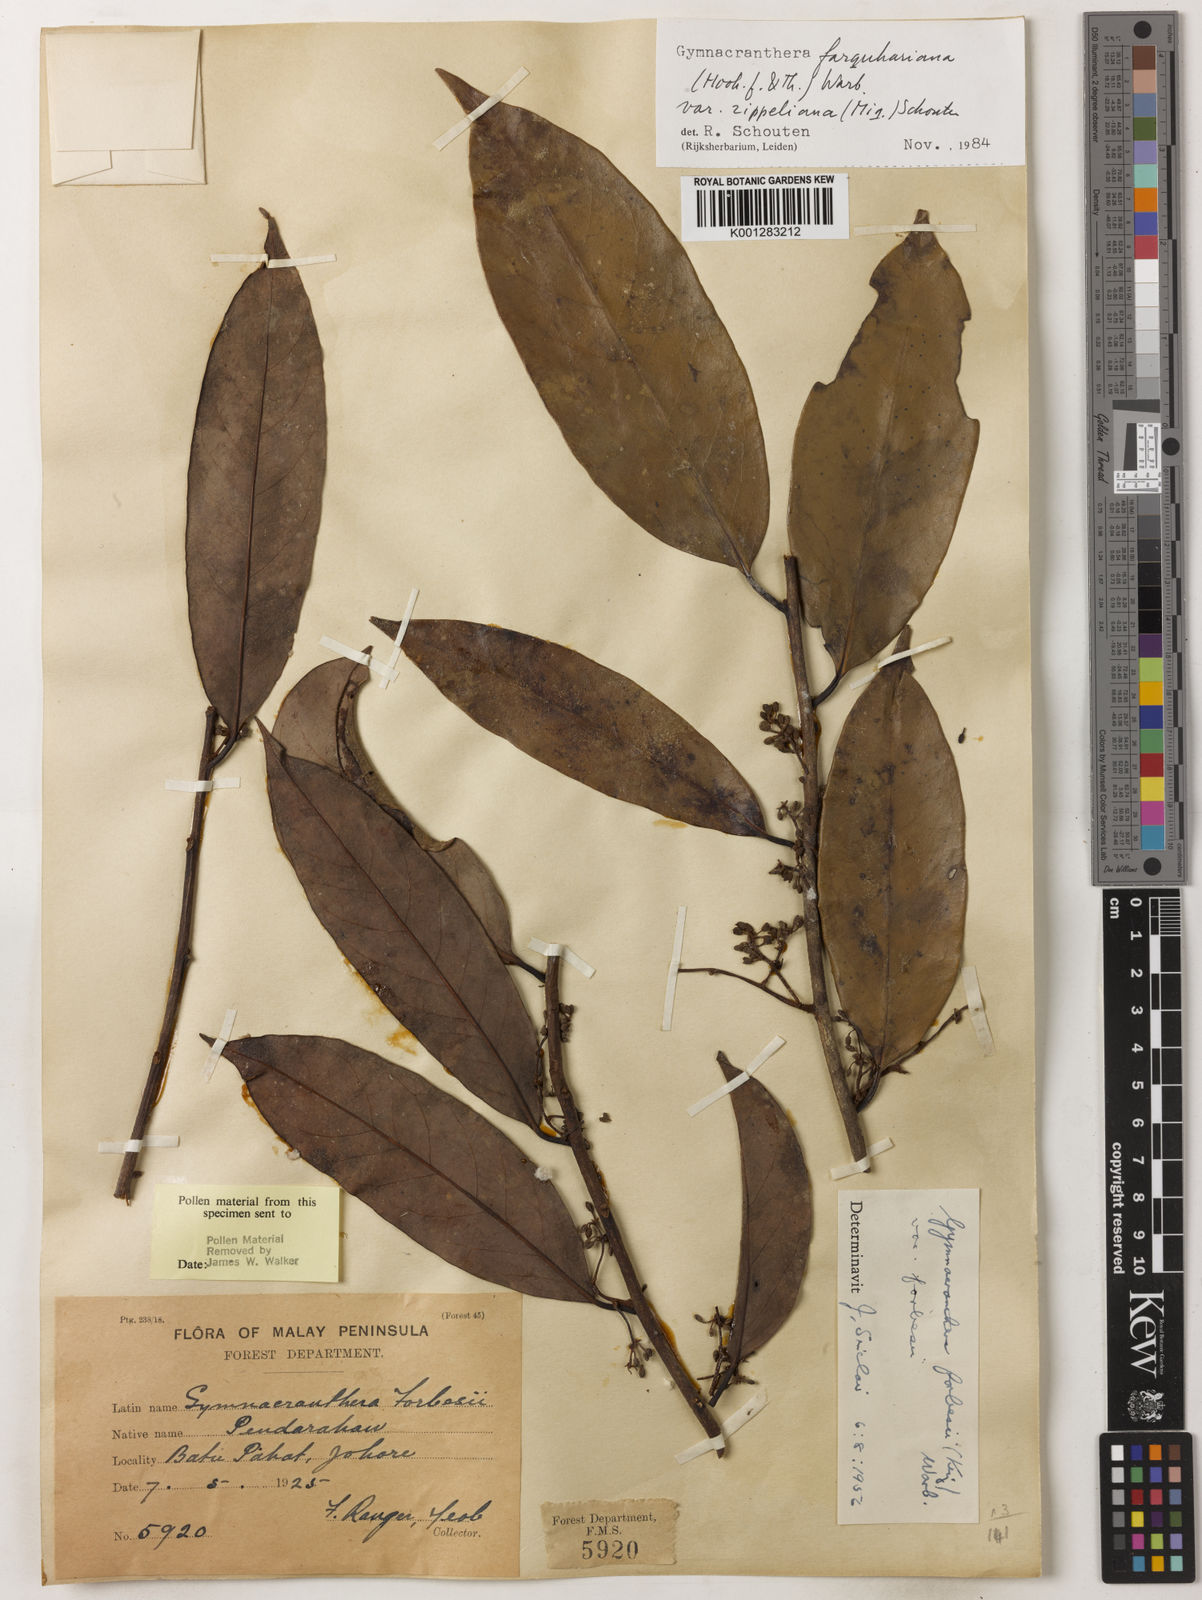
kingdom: Plantae
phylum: Tracheophyta
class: Magnoliopsida
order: Magnoliales
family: Myristicaceae
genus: Gymnacranthera
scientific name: Gymnacranthera farquhariana
